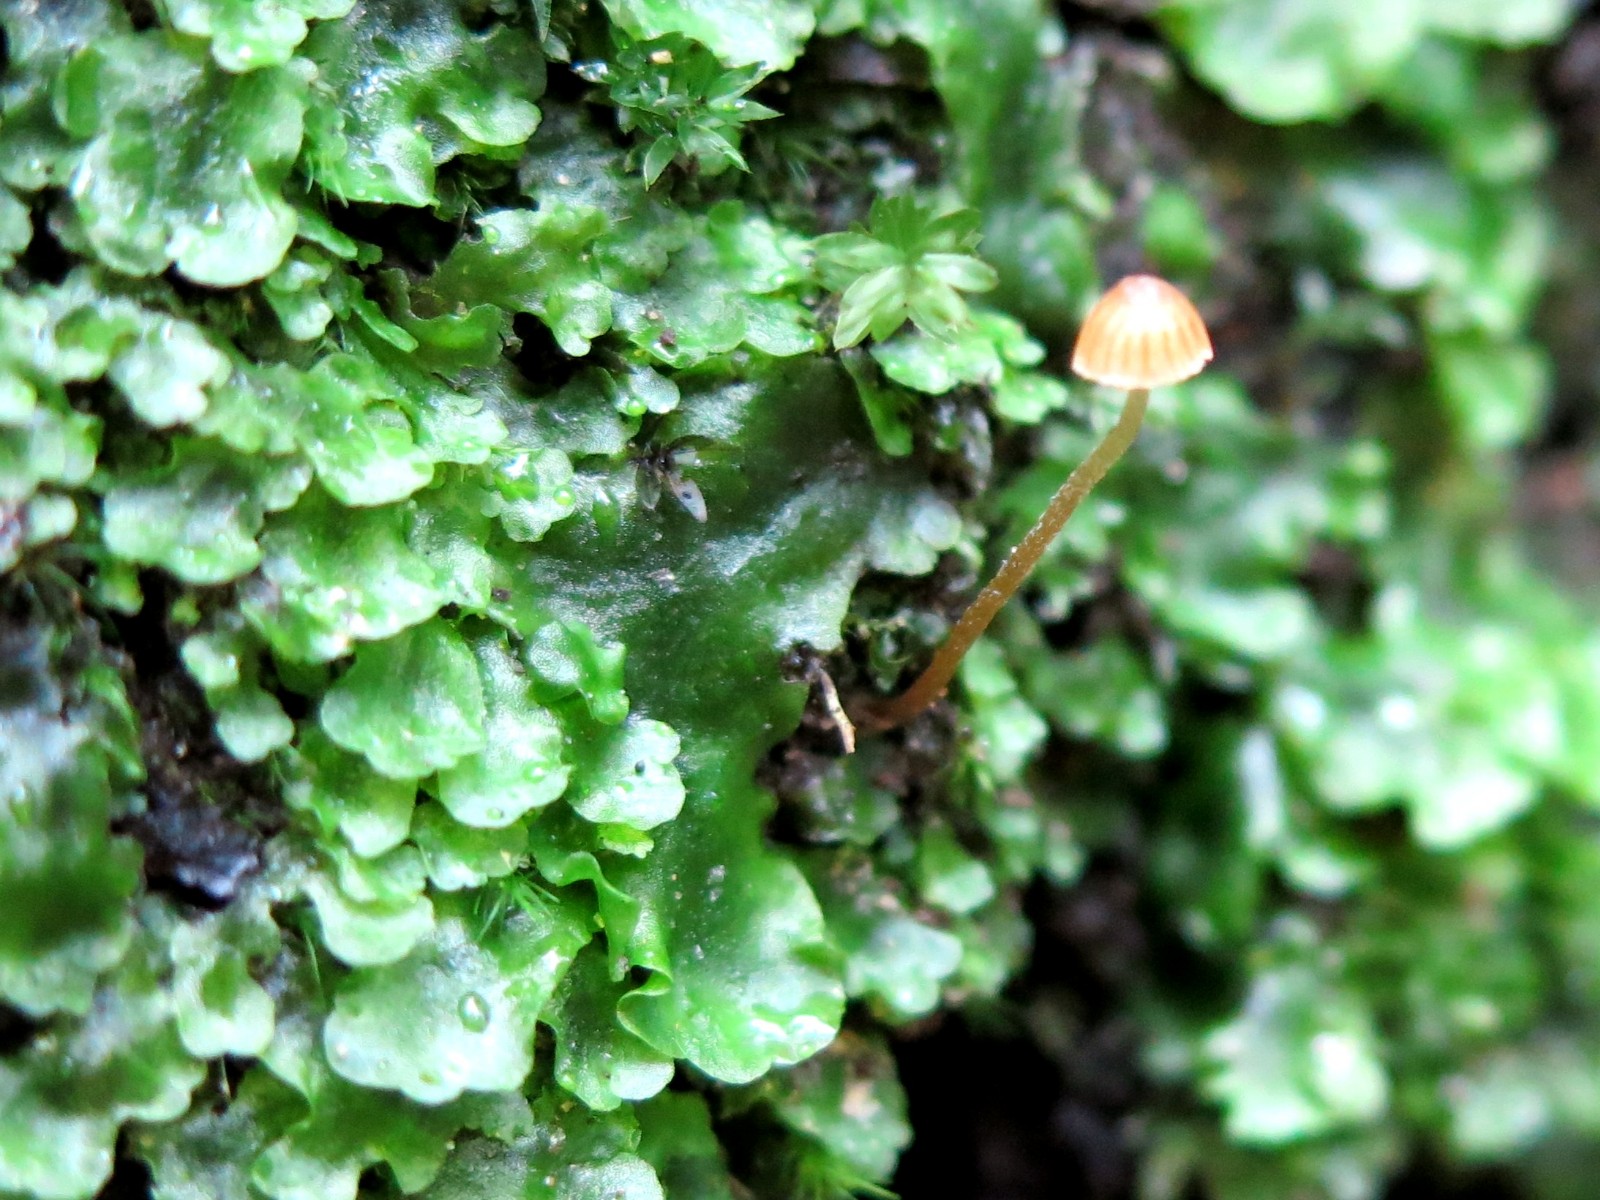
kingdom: Fungi
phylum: Basidiomycota
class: Agaricomycetes
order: Agaricales
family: Hymenogastraceae
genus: Galerina
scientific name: Galerina
